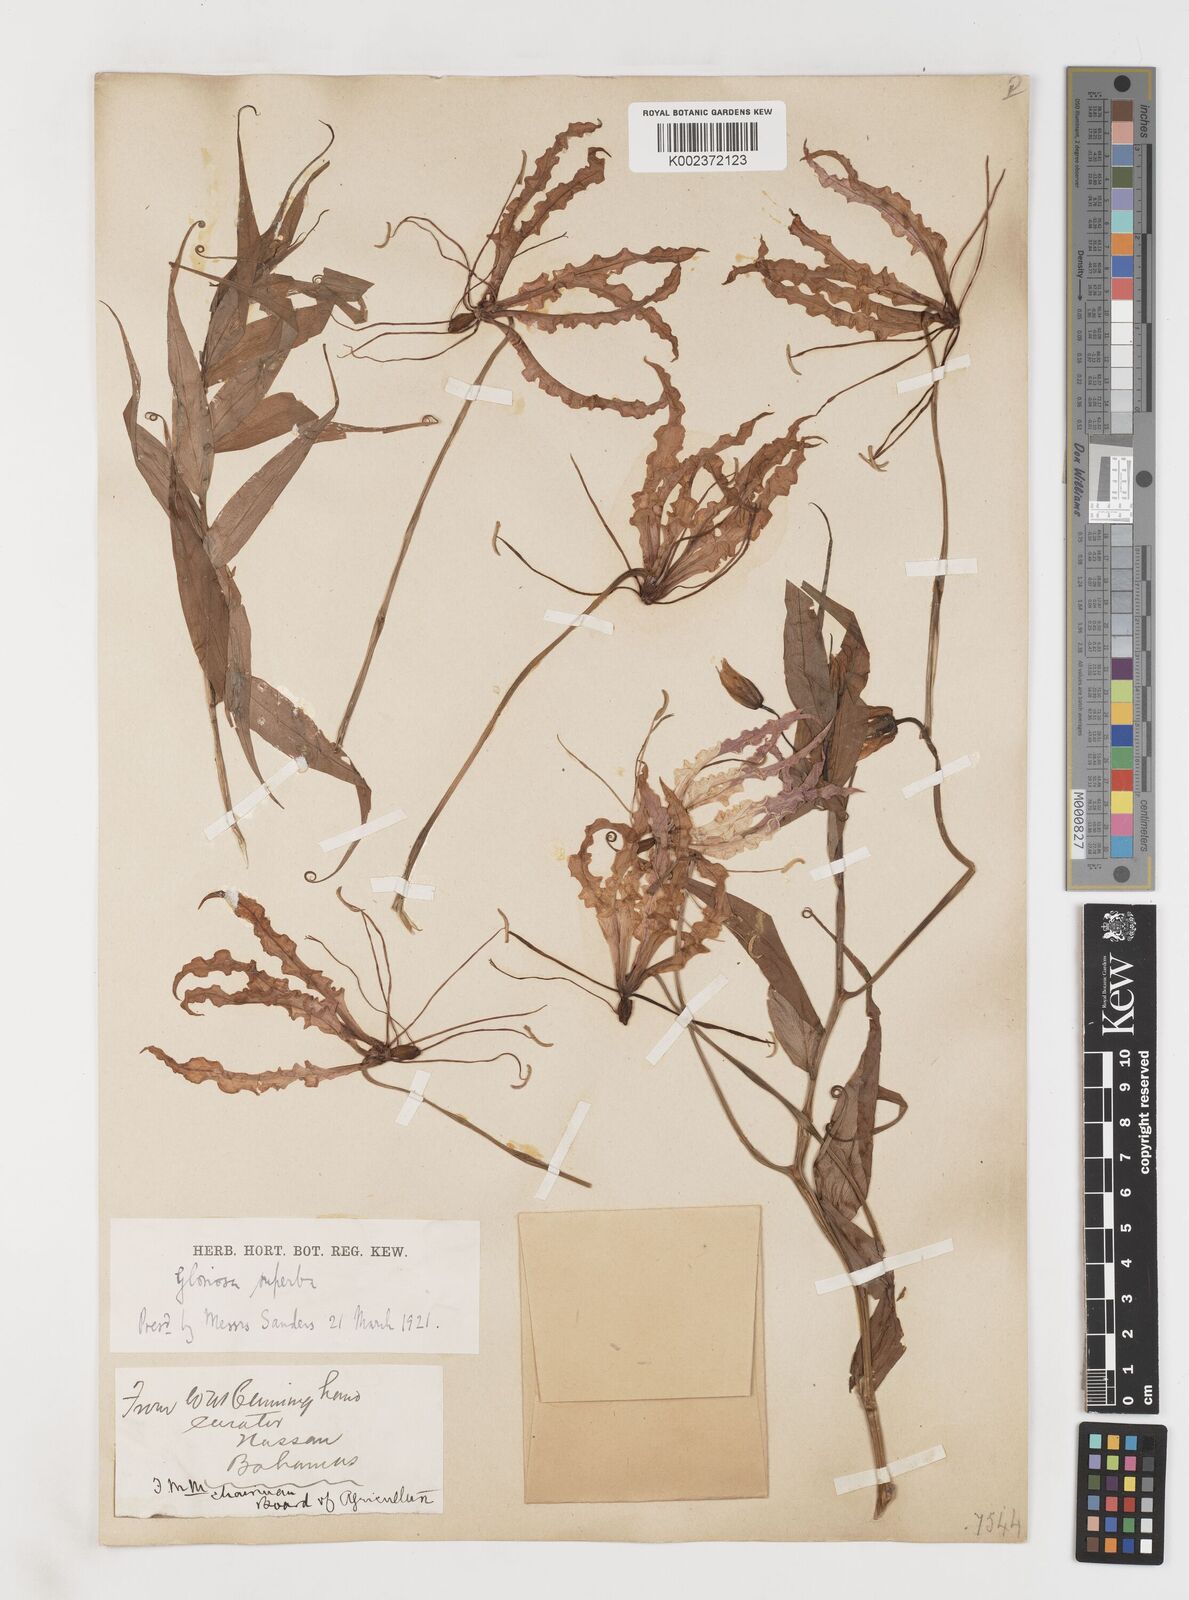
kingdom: Plantae
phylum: Tracheophyta
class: Liliopsida
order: Liliales
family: Colchicaceae
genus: Gloriosa
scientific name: Gloriosa superba
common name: Flame lily
